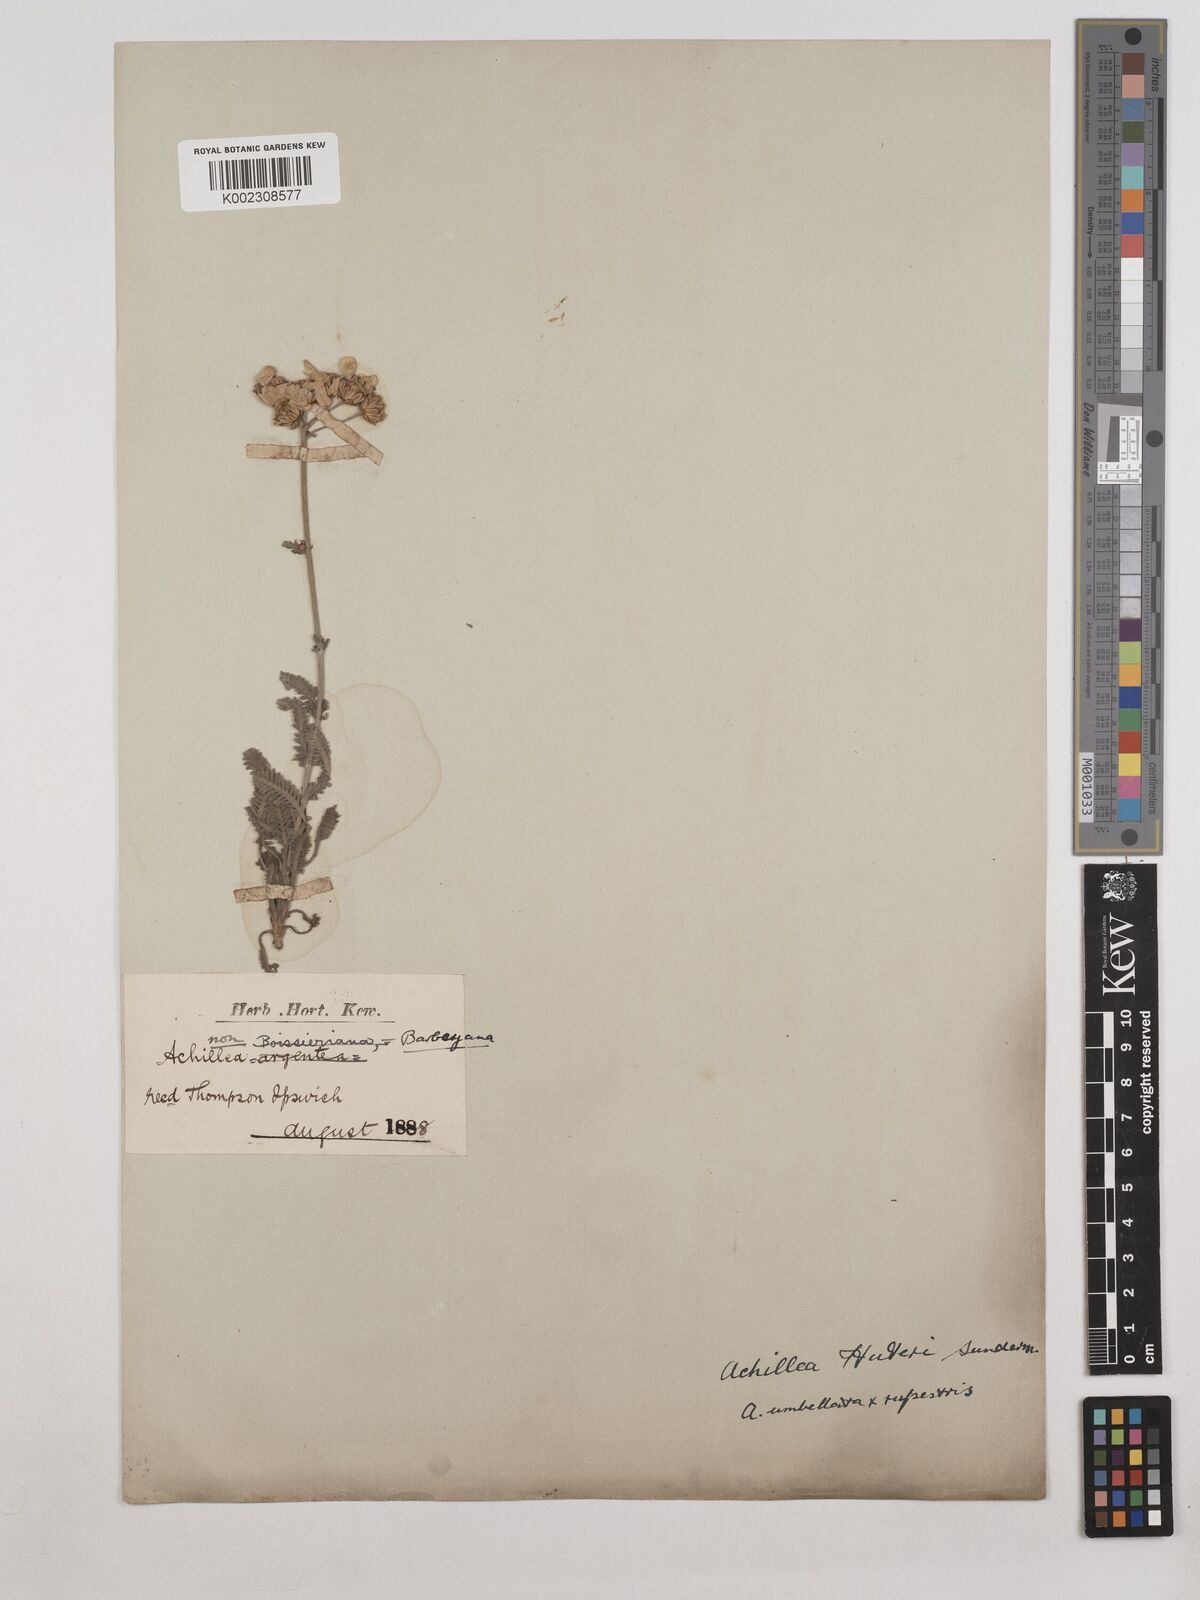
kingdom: Plantae
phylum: Tracheophyta
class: Magnoliopsida
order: Asterales
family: Asteraceae
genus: Achillea
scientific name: Achillea huteri
